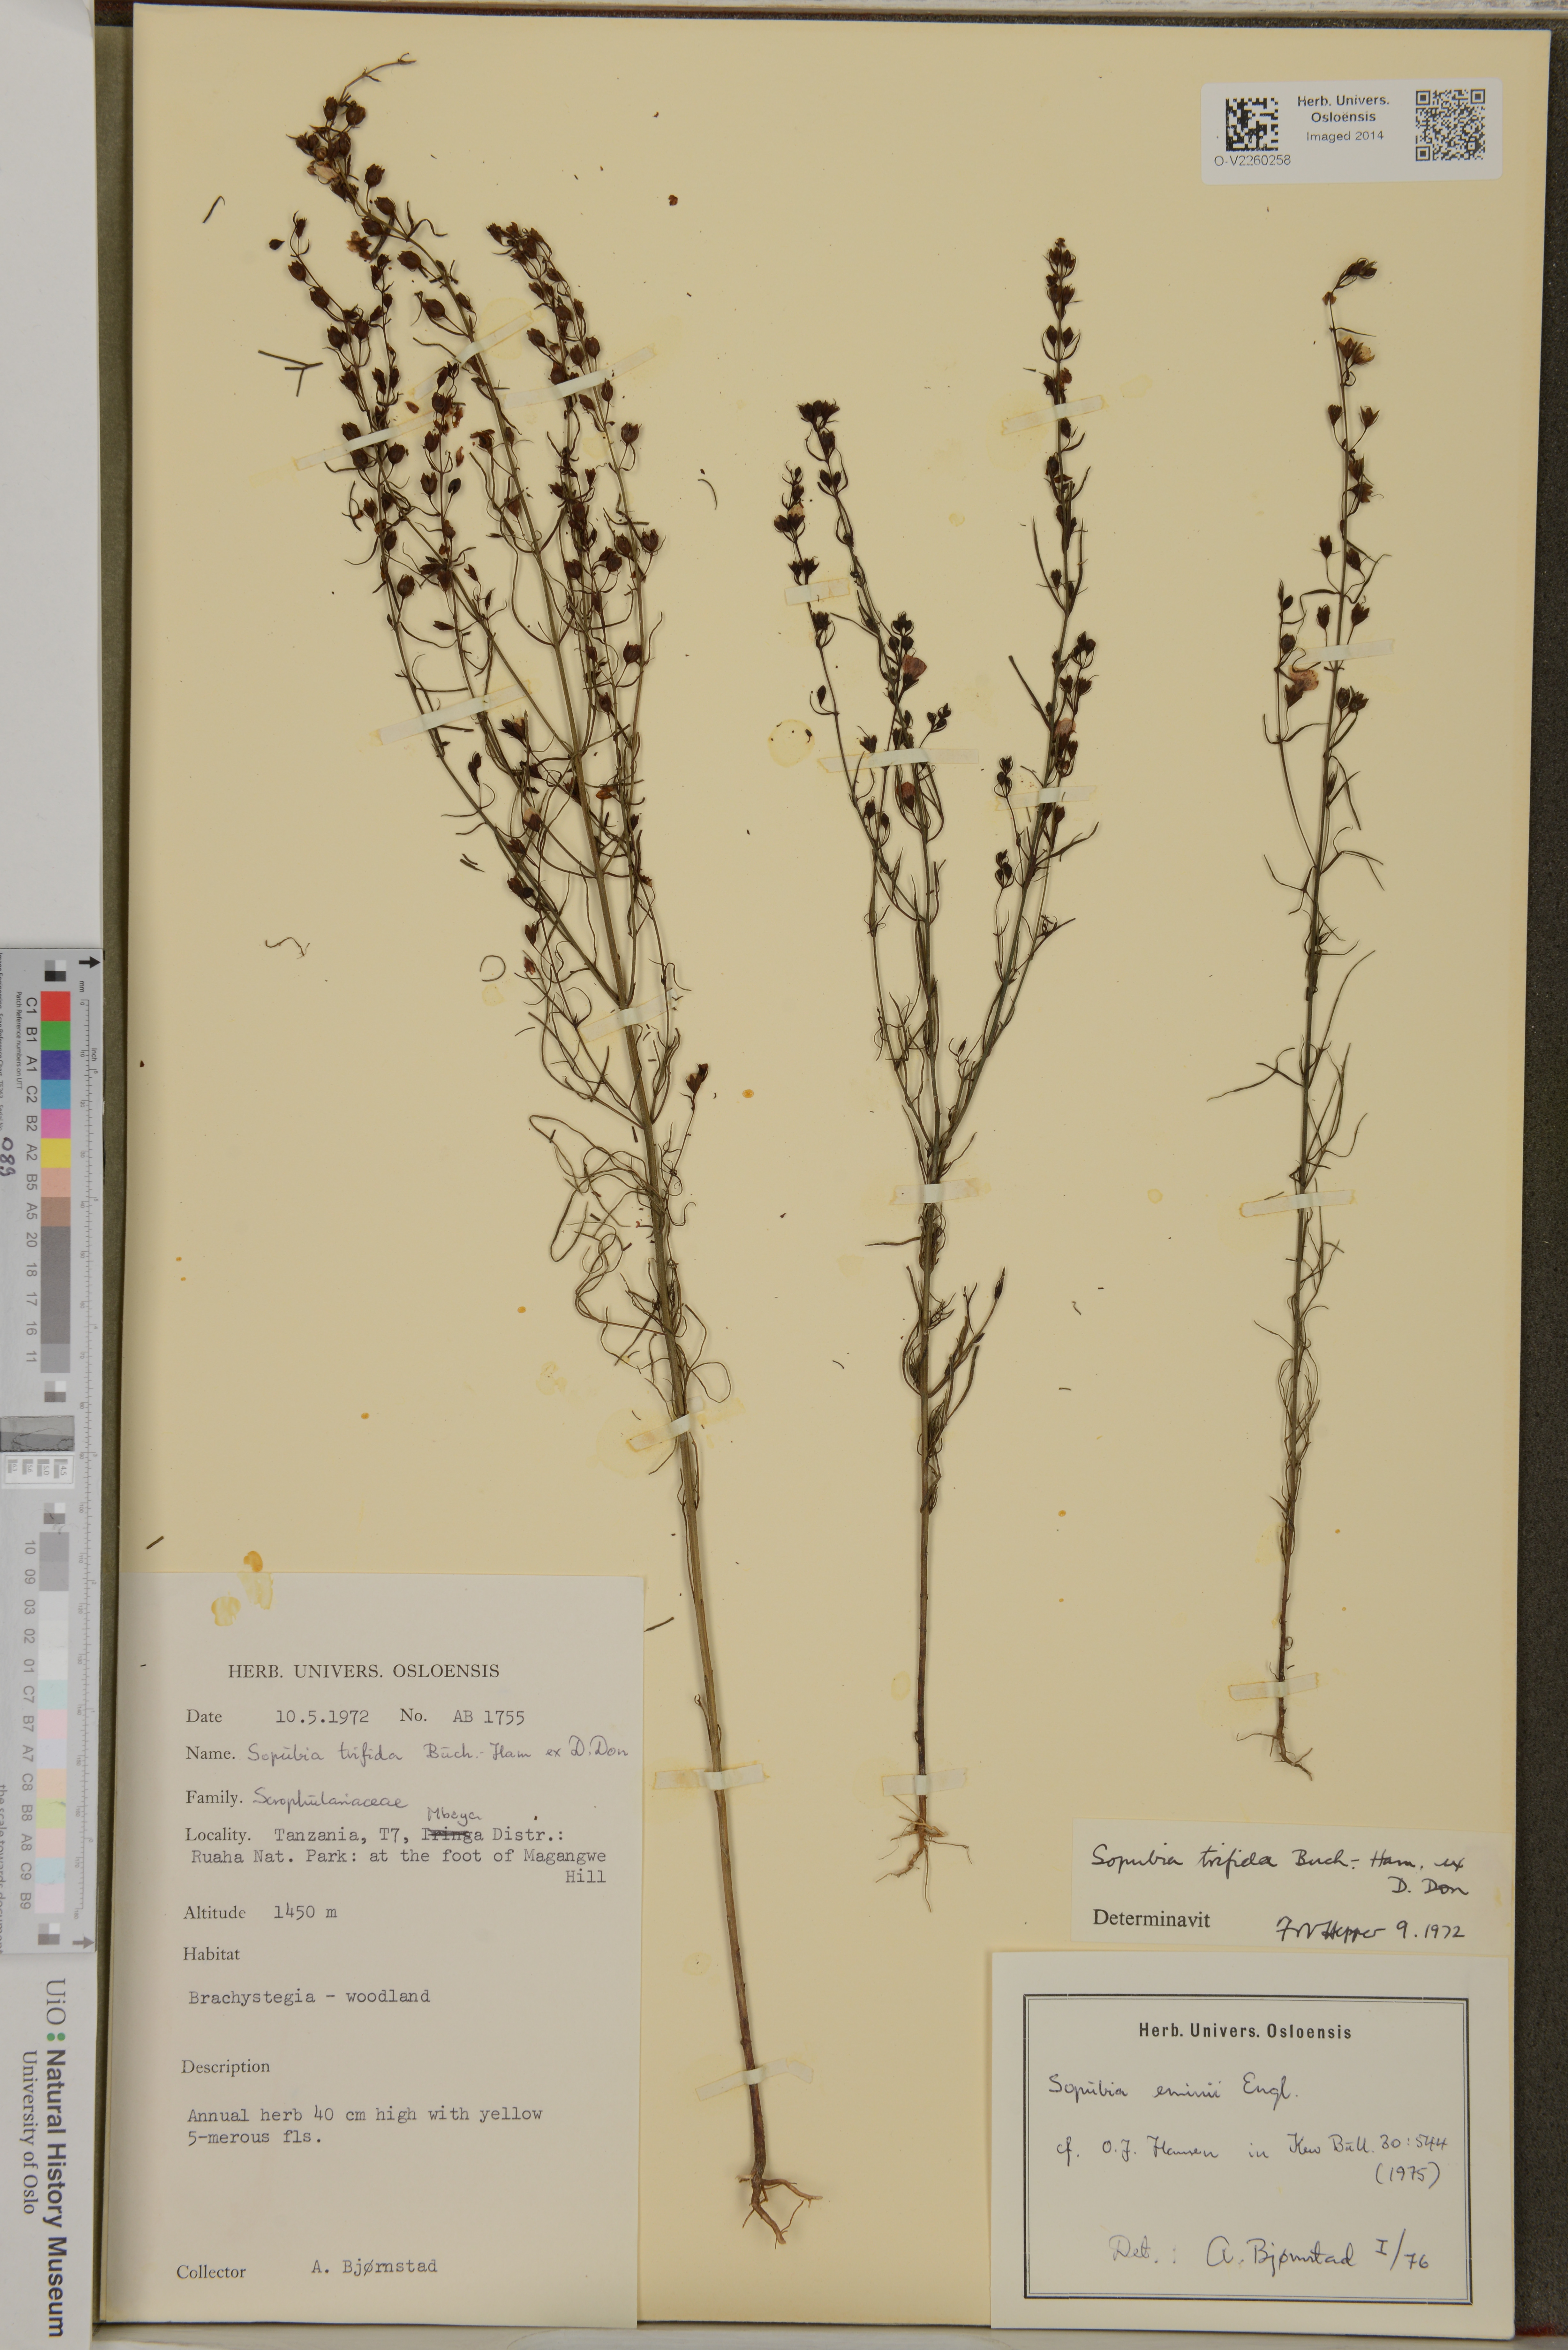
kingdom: Plantae
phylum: Tracheophyta
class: Magnoliopsida
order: Lamiales
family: Orobanchaceae
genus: Sopubia
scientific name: Sopubia trifida
